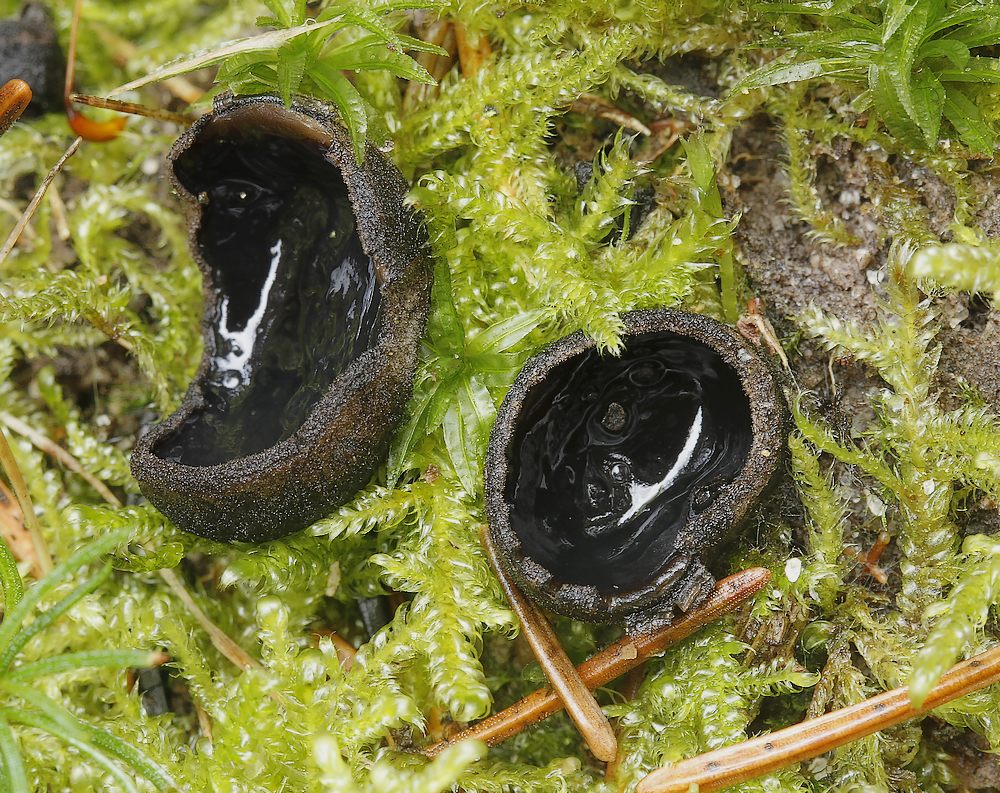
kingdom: Fungi
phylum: Ascomycota
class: Pezizomycetes
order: Pezizales
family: Sarcosomataceae
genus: Pseudoplectania
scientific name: Pseudoplectania nigrella
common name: almindelig sortbæger
